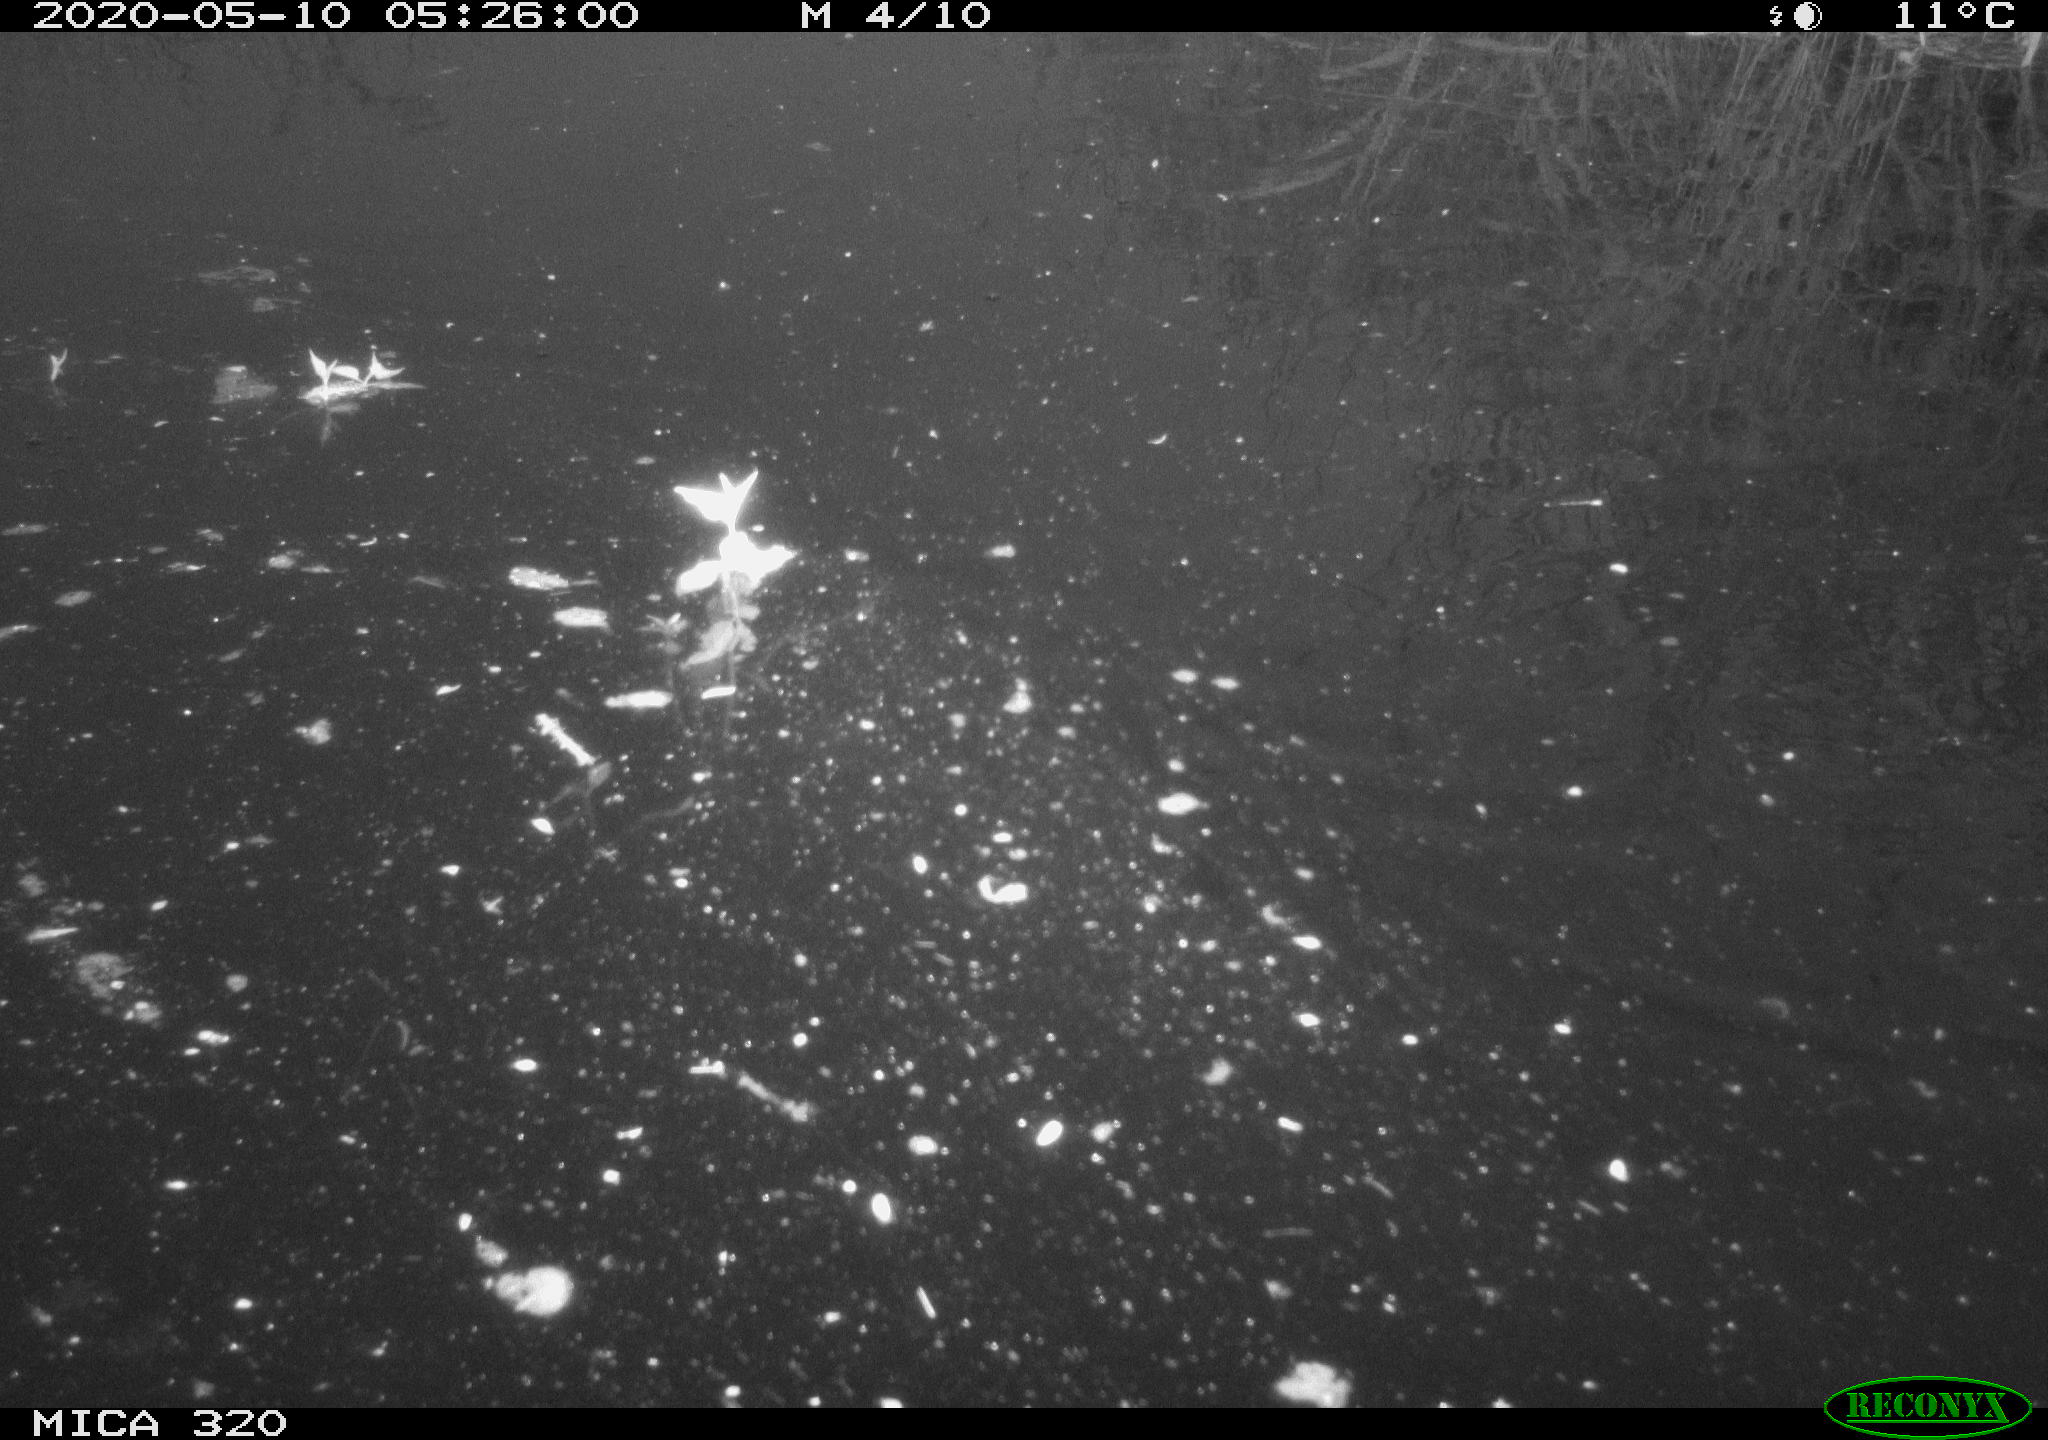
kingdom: Animalia
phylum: Chordata
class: Aves
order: Gruiformes
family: Rallidae
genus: Gallinula
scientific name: Gallinula chloropus
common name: Common moorhen
